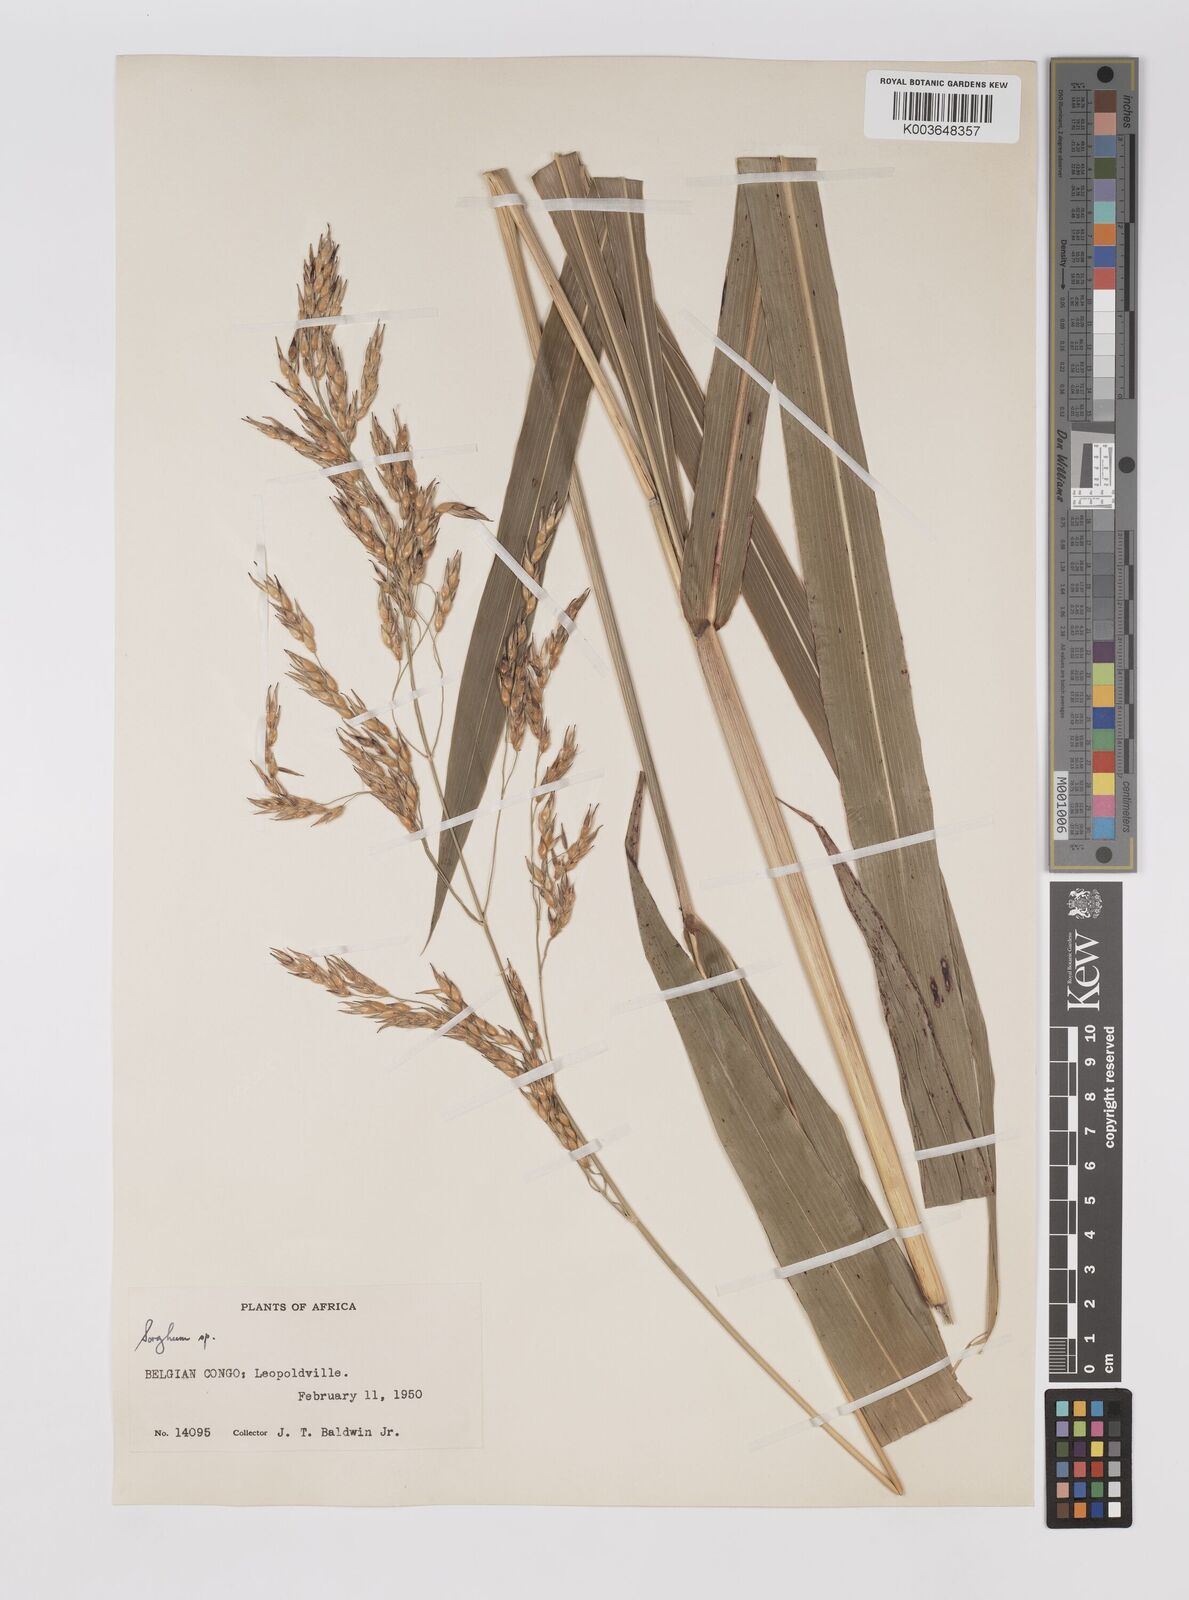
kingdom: Plantae
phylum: Tracheophyta
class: Liliopsida
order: Poales
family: Poaceae
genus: Sorghum
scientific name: Sorghum drummondii
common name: Sudangrass
